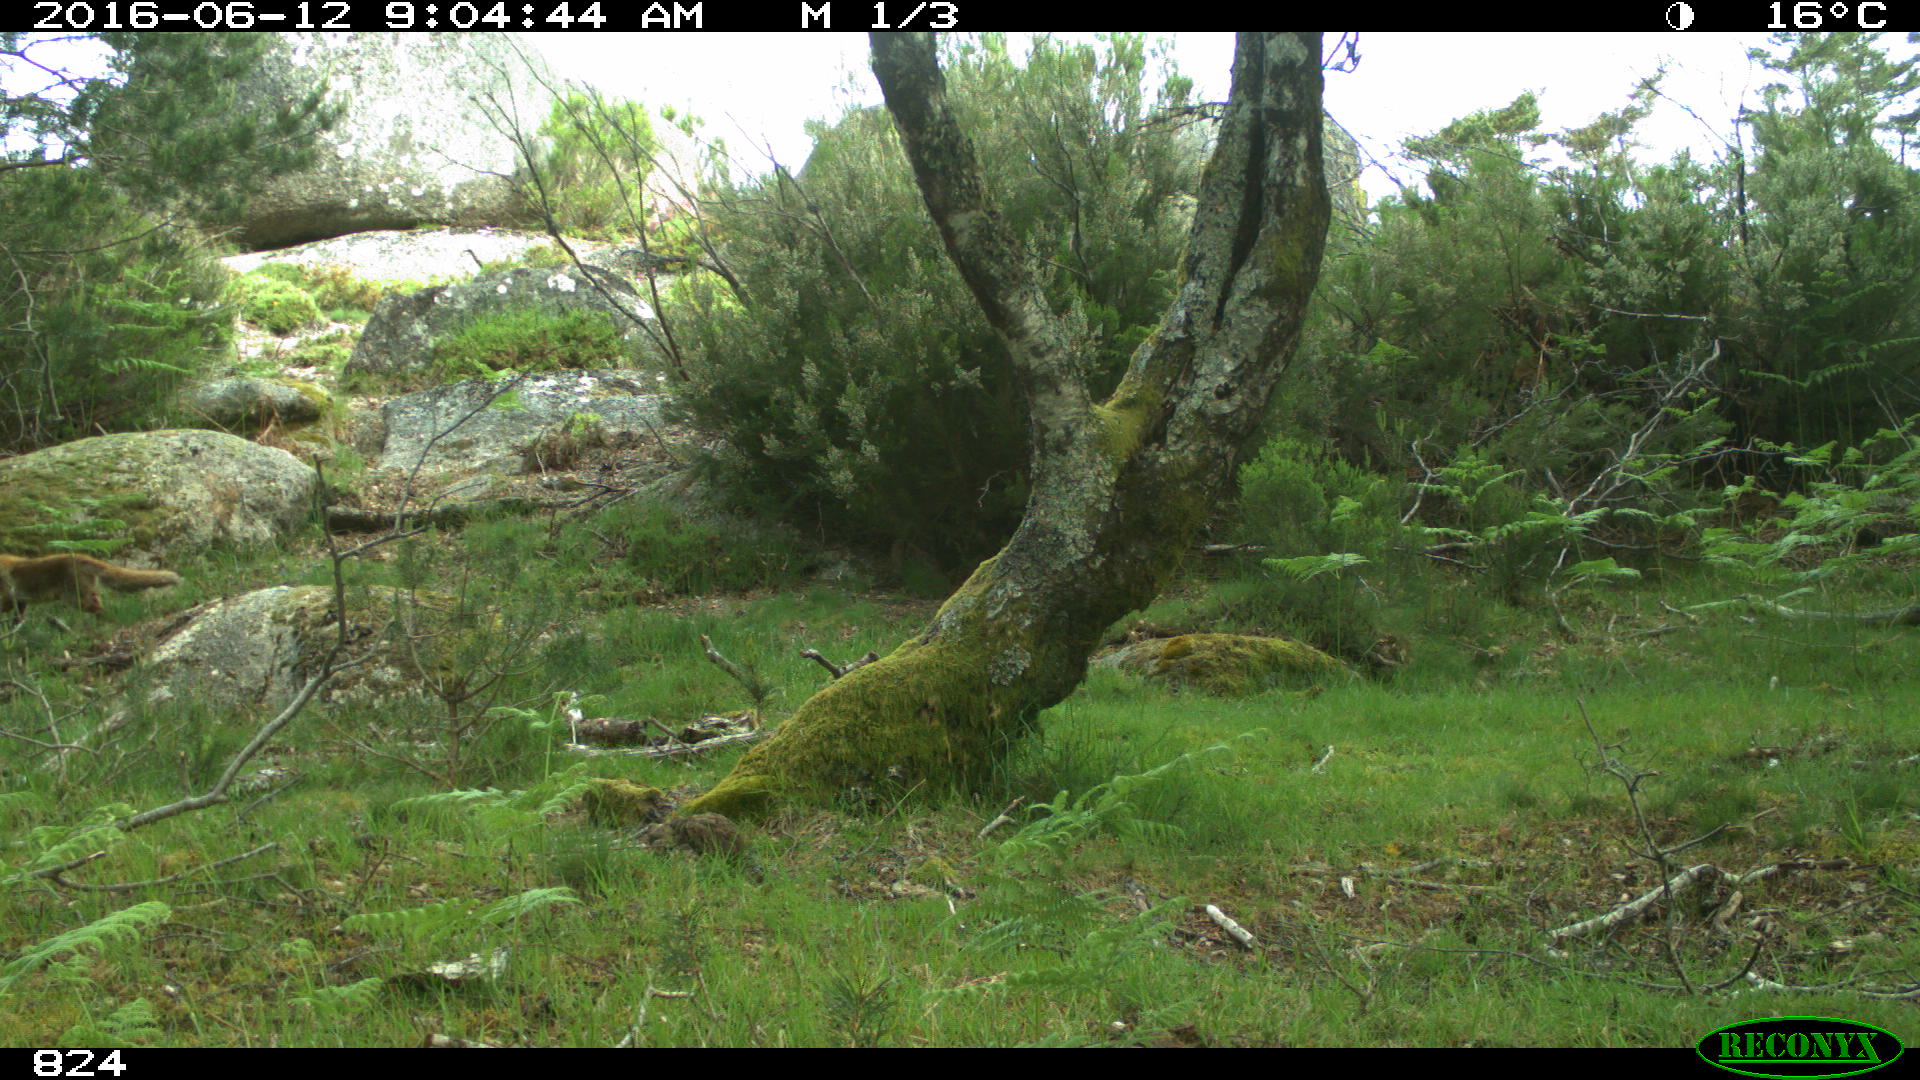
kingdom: Animalia
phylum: Chordata
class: Mammalia
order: Carnivora
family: Canidae
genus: Vulpes
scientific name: Vulpes vulpes
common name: Red fox
